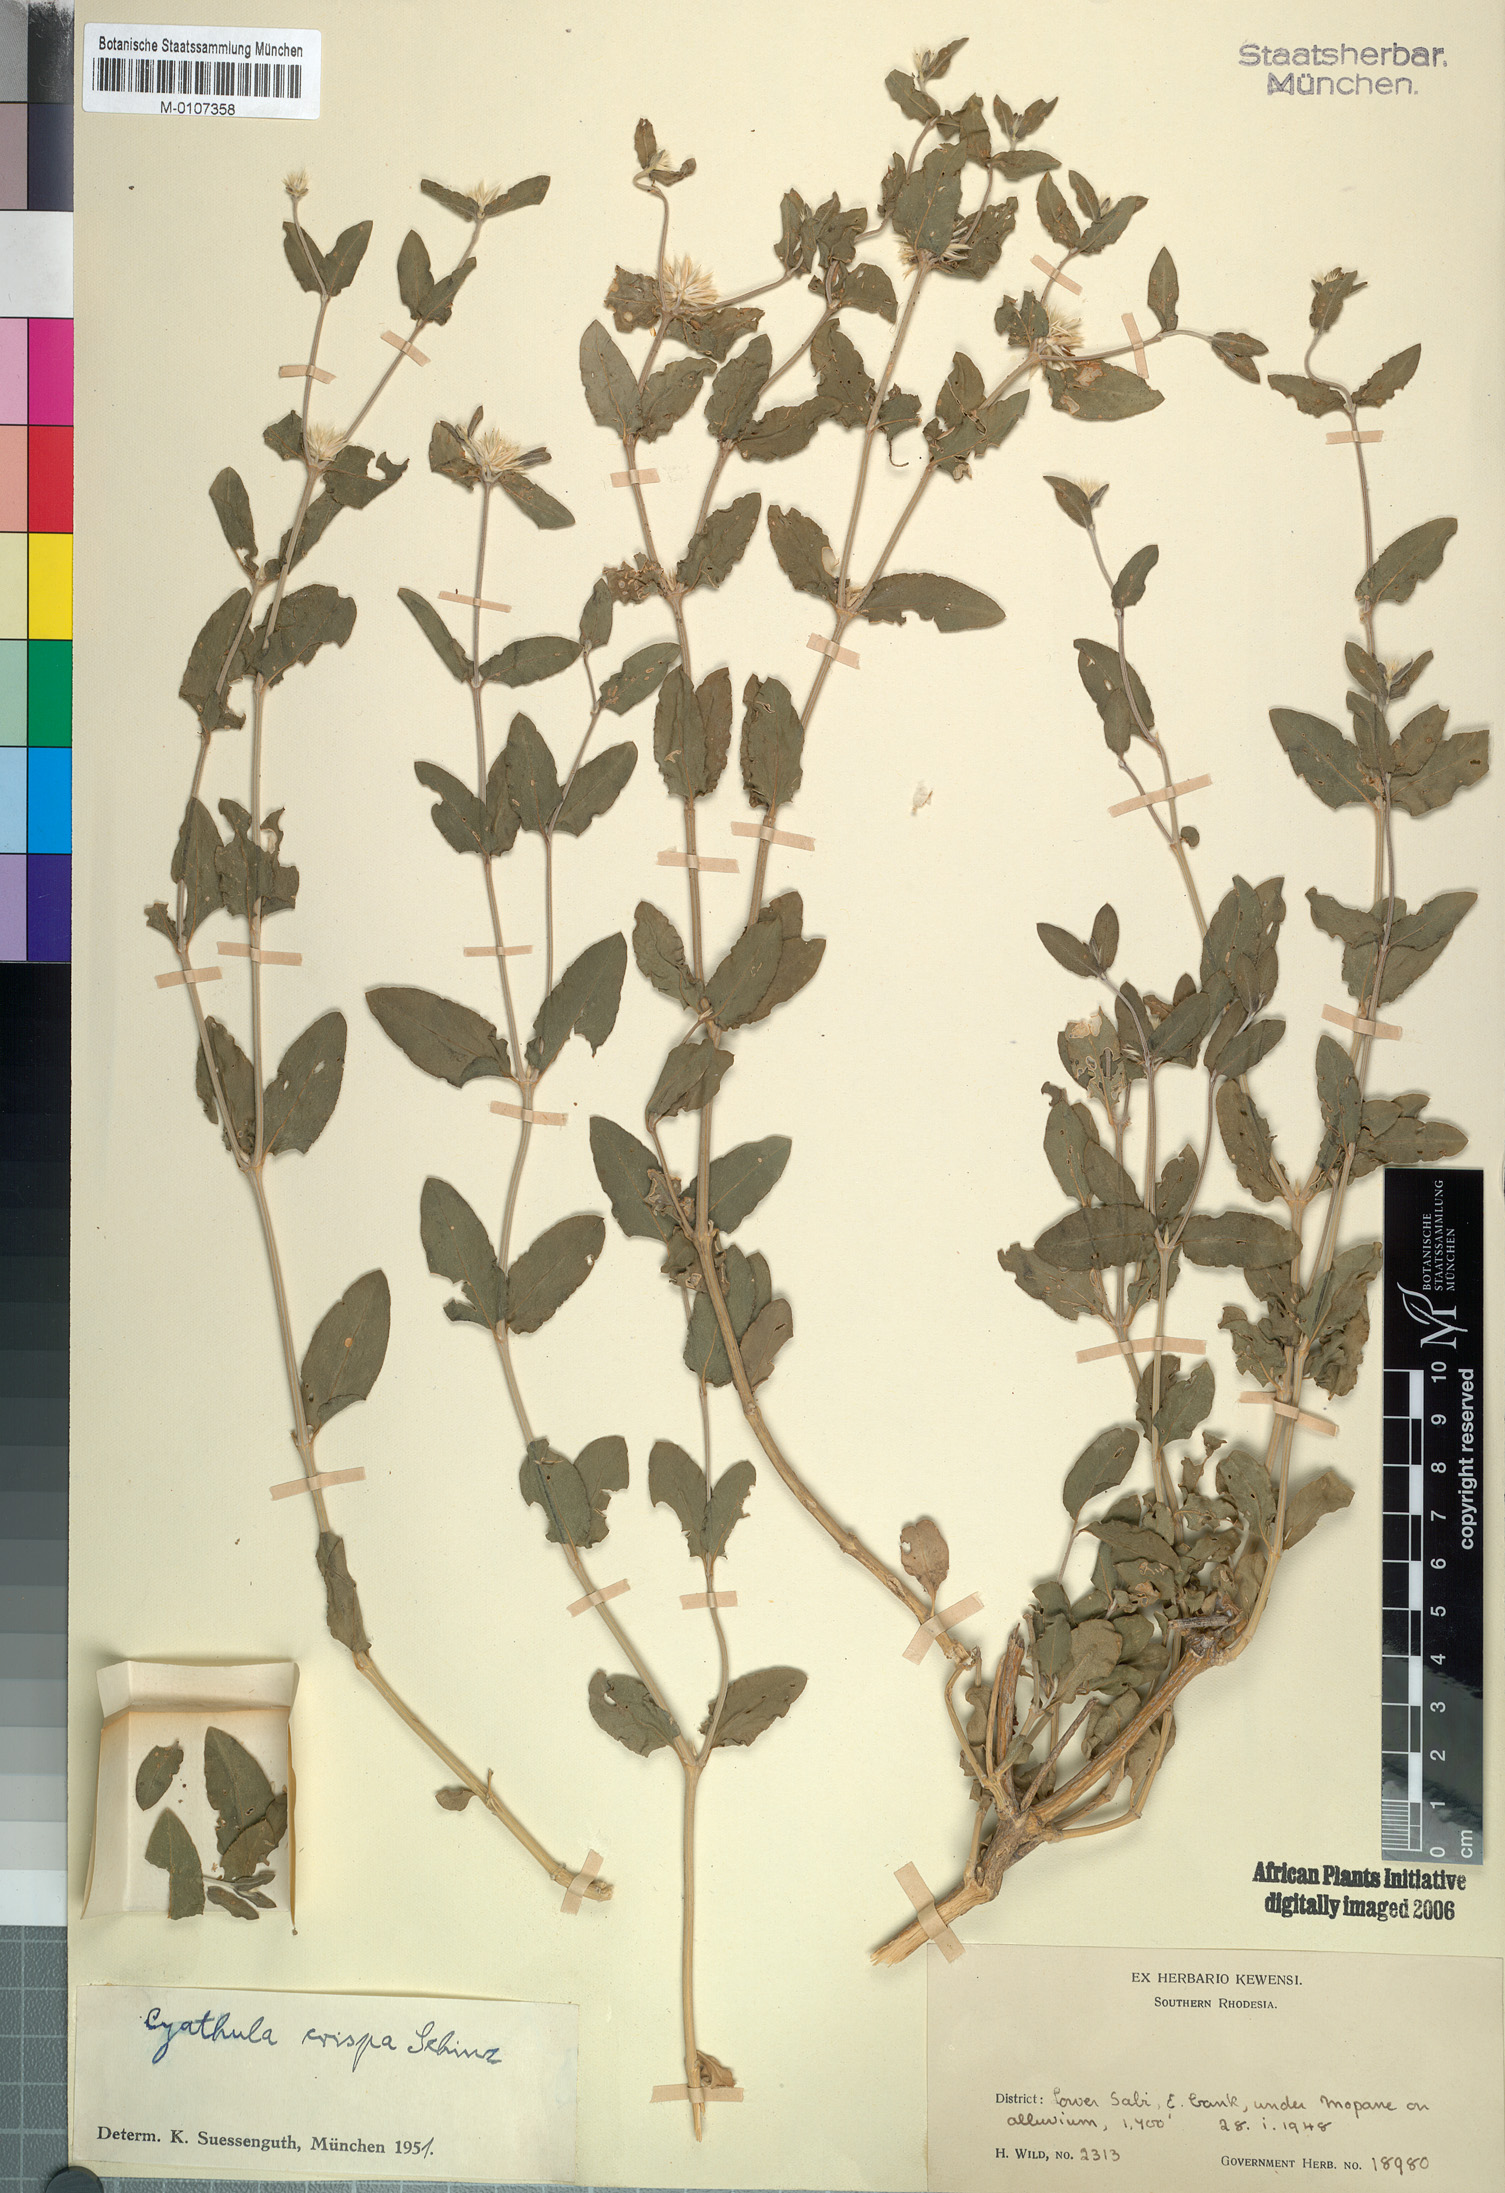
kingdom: Plantae
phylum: Tracheophyta
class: Magnoliopsida
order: Caryophyllales
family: Amaranthaceae
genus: Cyathula
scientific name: Cyathula lanceolata
